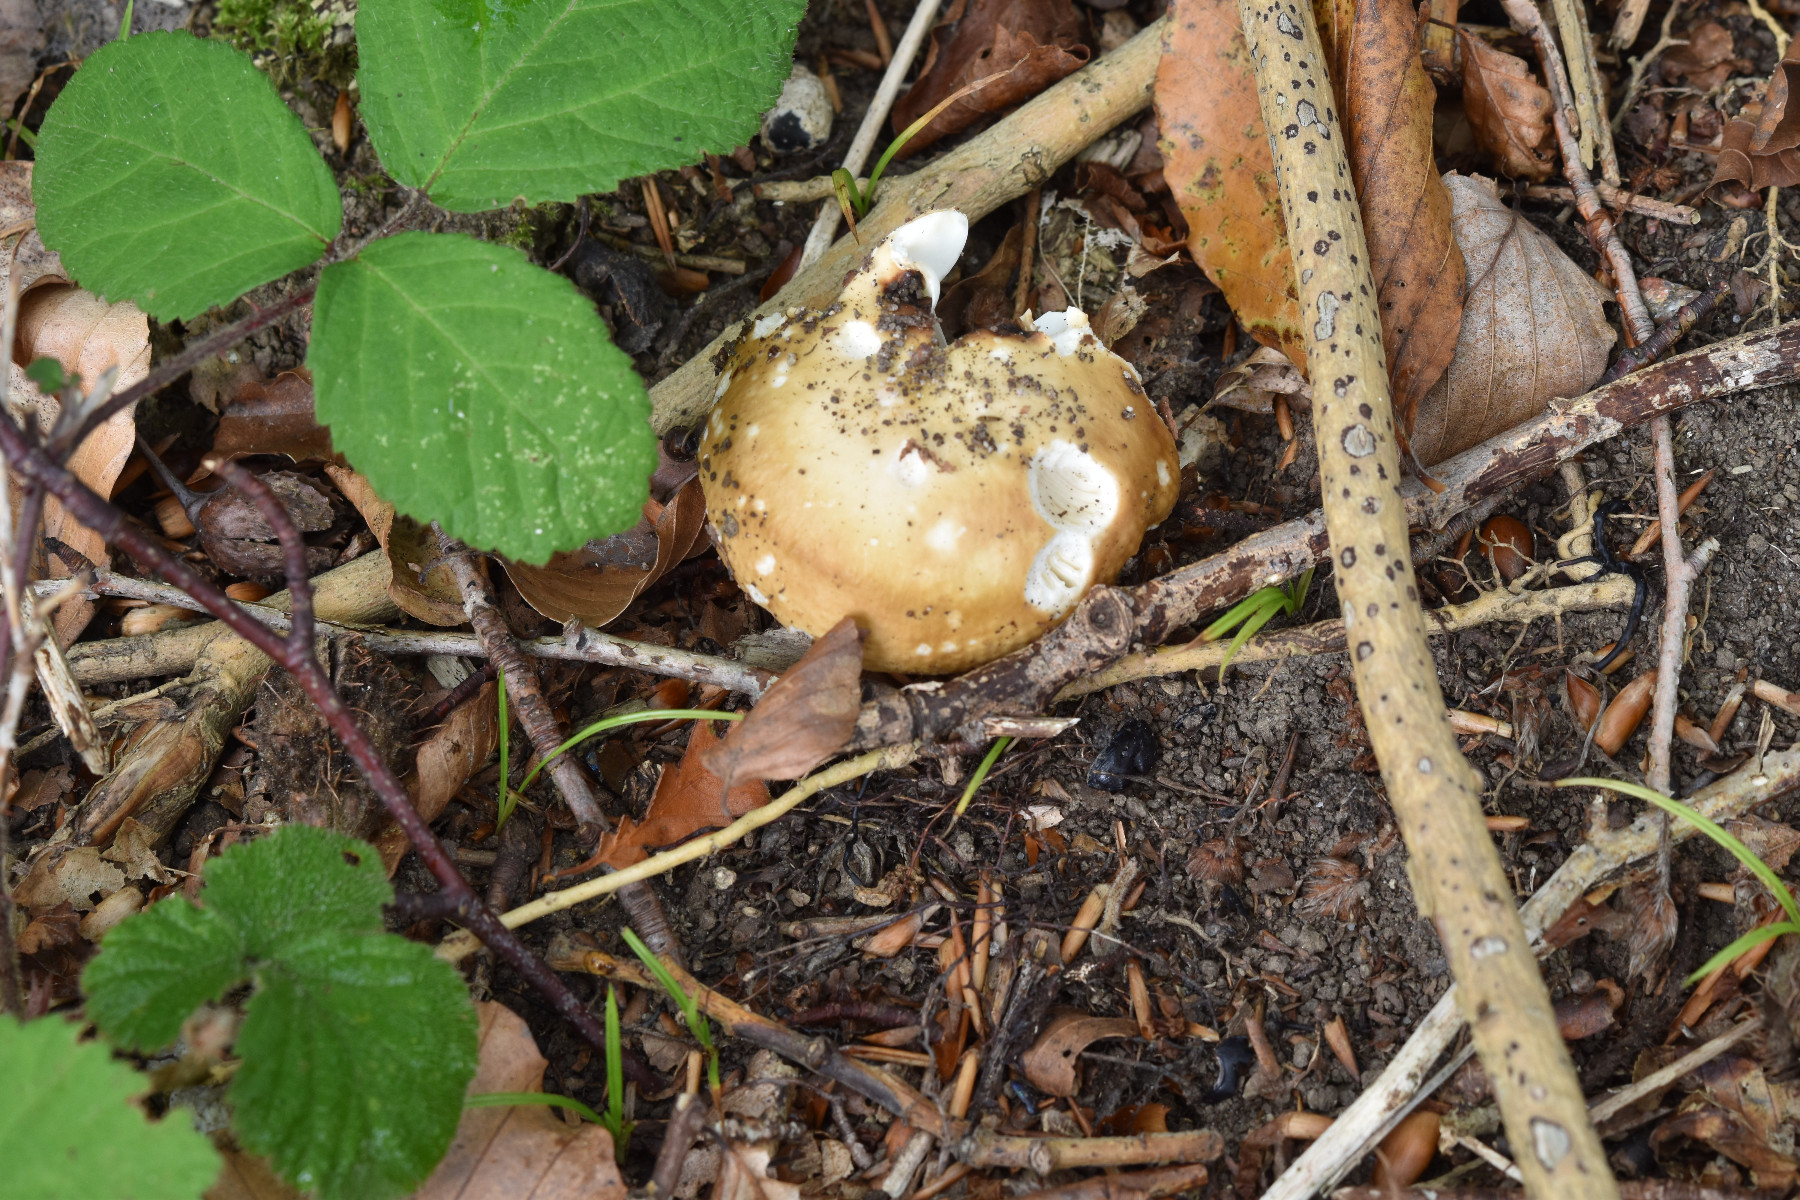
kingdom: Fungi
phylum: Basidiomycota
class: Agaricomycetes
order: Russulales
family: Russulaceae
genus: Russula
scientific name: Russula cuprea
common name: kanel-skørhat
